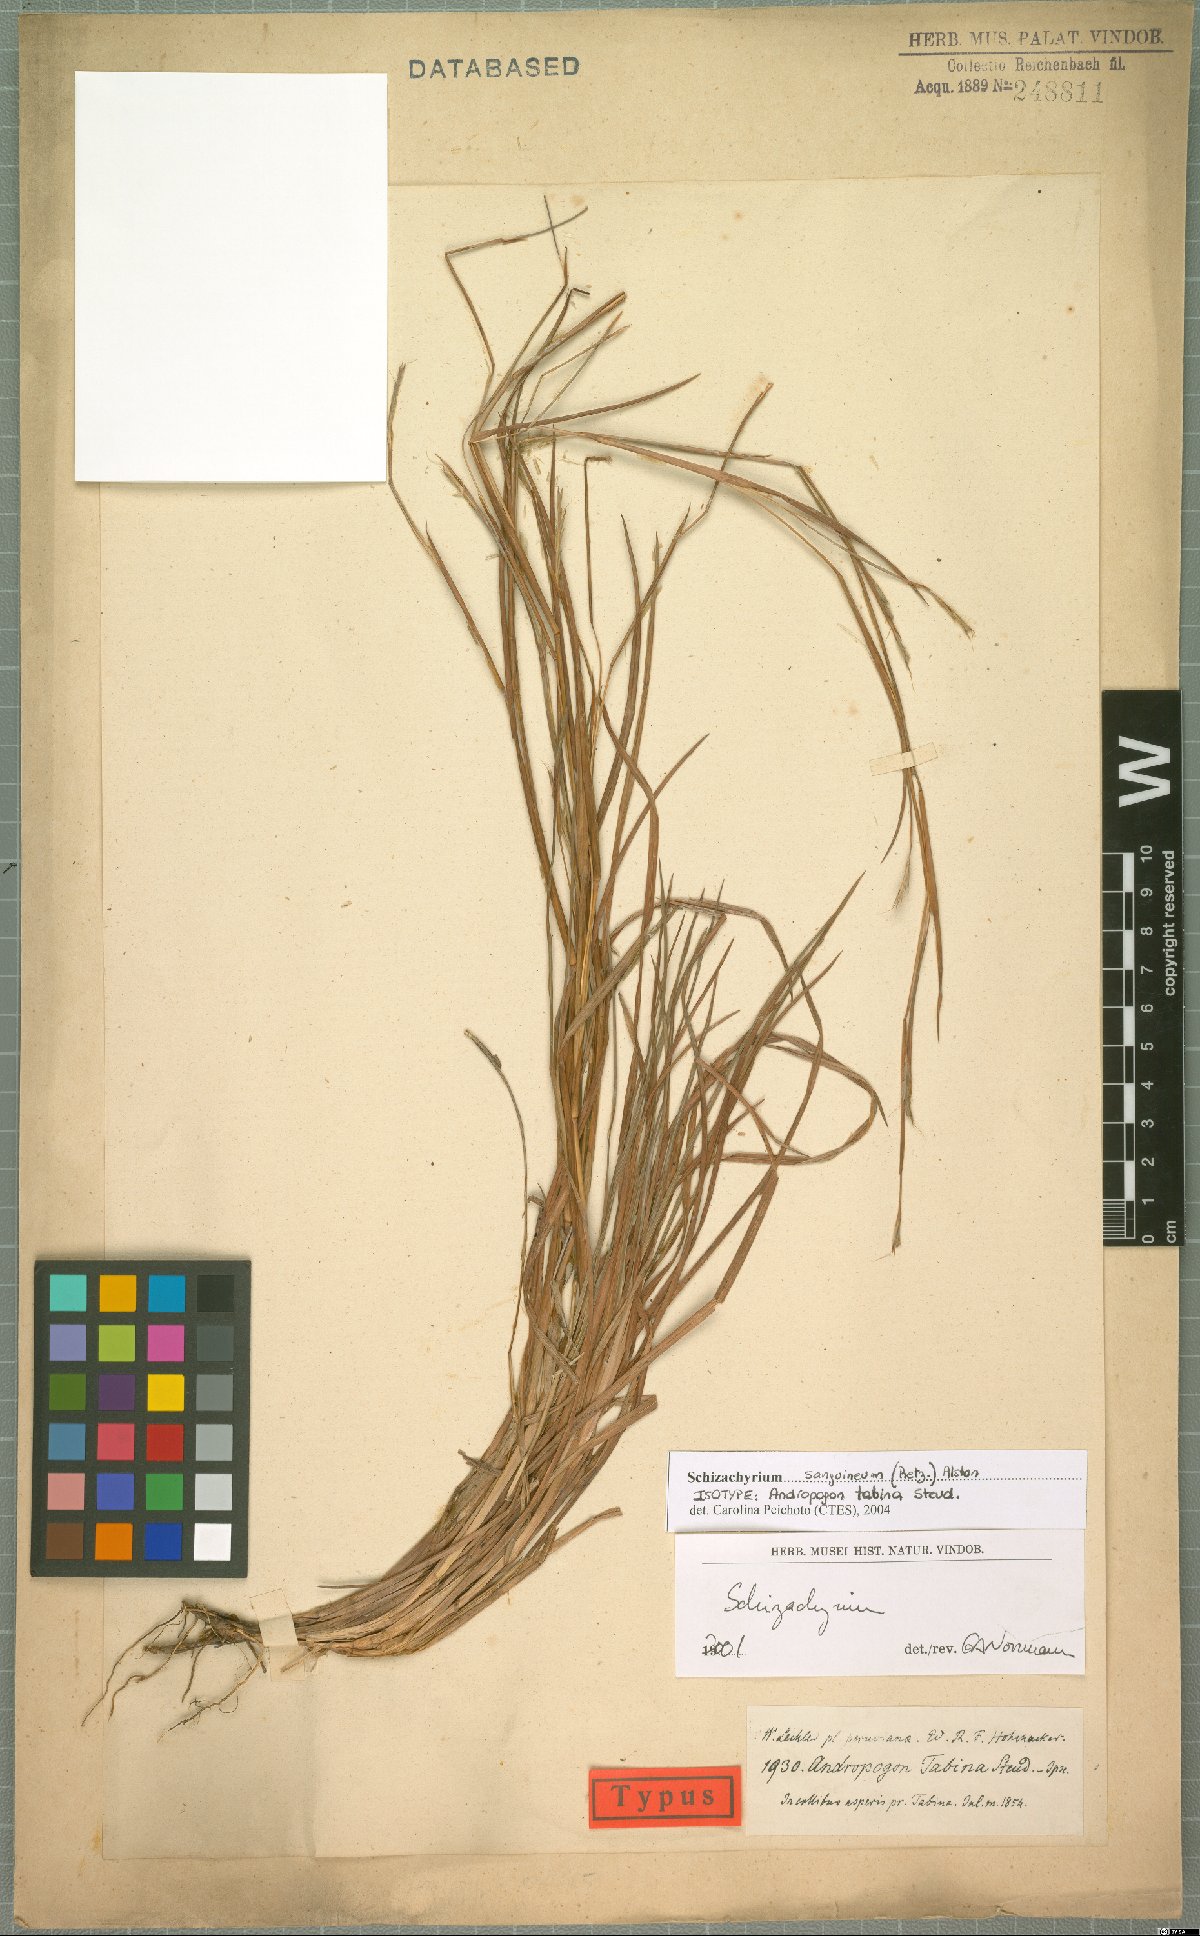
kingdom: Plantae
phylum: Tracheophyta
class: Liliopsida
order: Poales
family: Poaceae
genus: Schizachyrium
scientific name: Schizachyrium sanguineum
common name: Crimson bluestem
